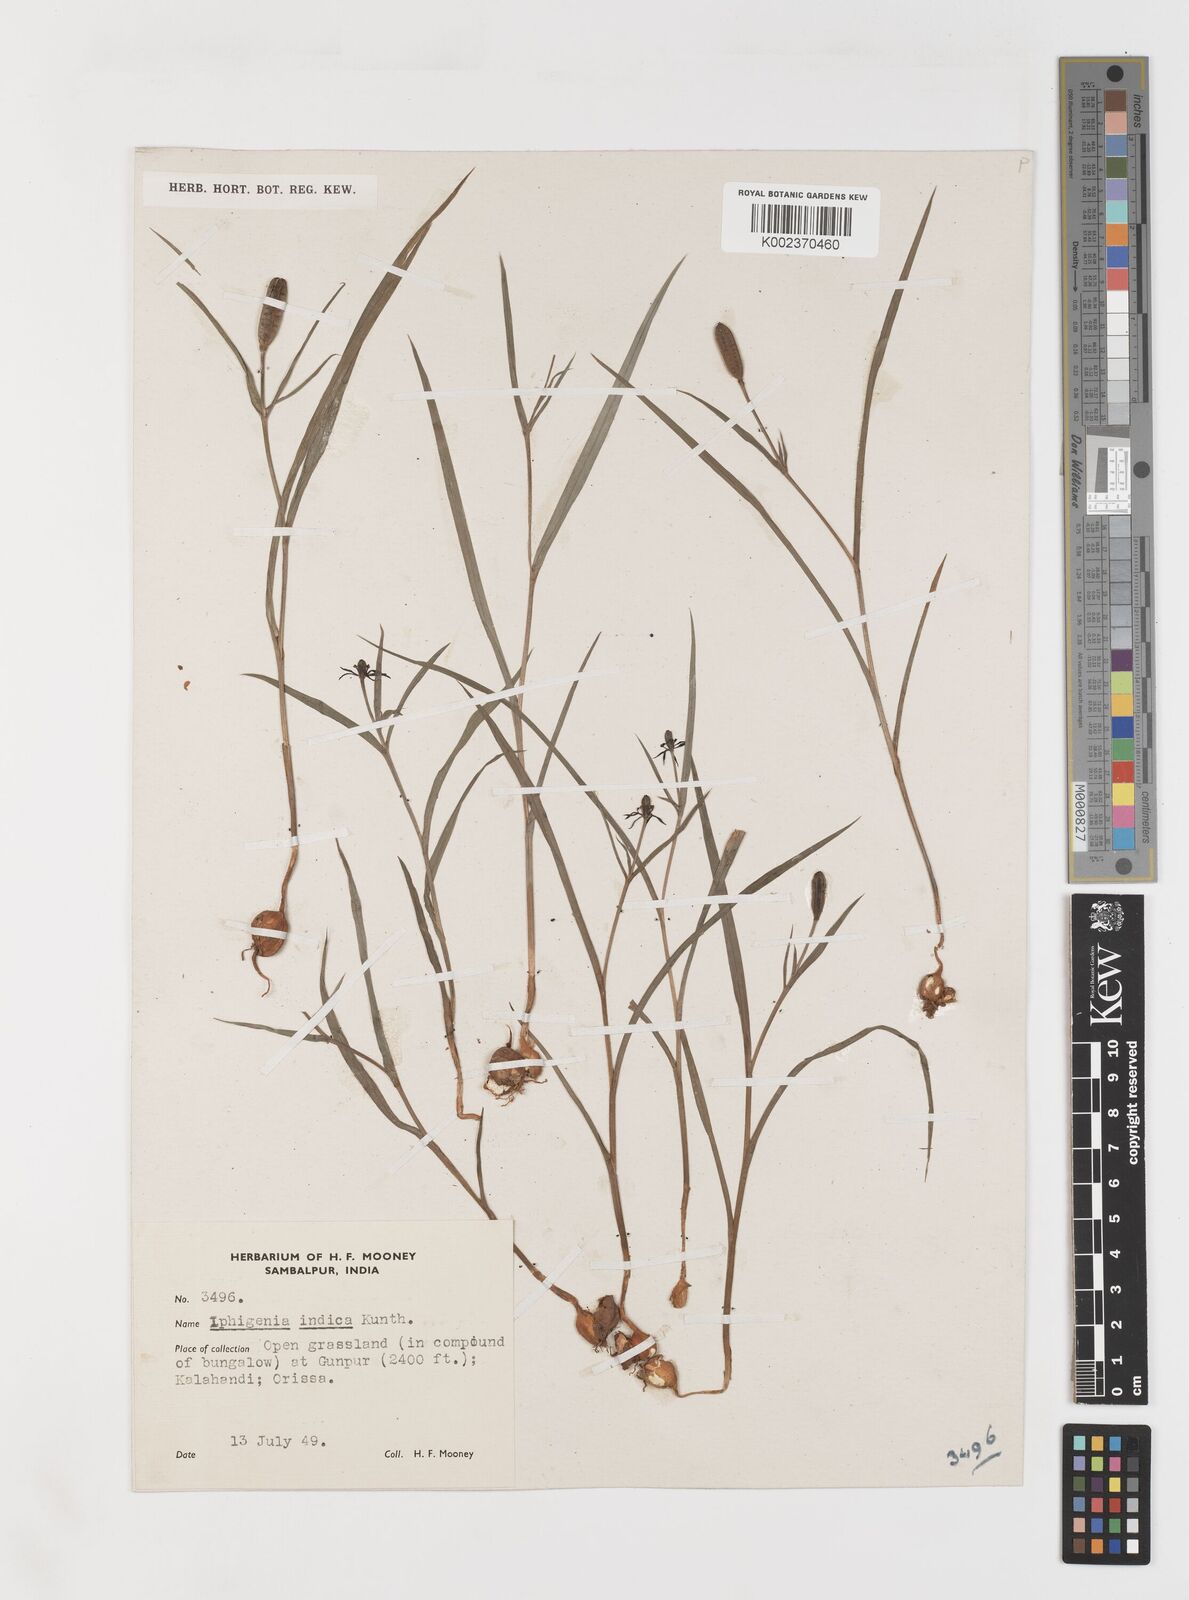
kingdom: Plantae
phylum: Tracheophyta
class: Liliopsida
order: Liliales
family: Colchicaceae
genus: Iphigenia
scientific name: Iphigenia indica
